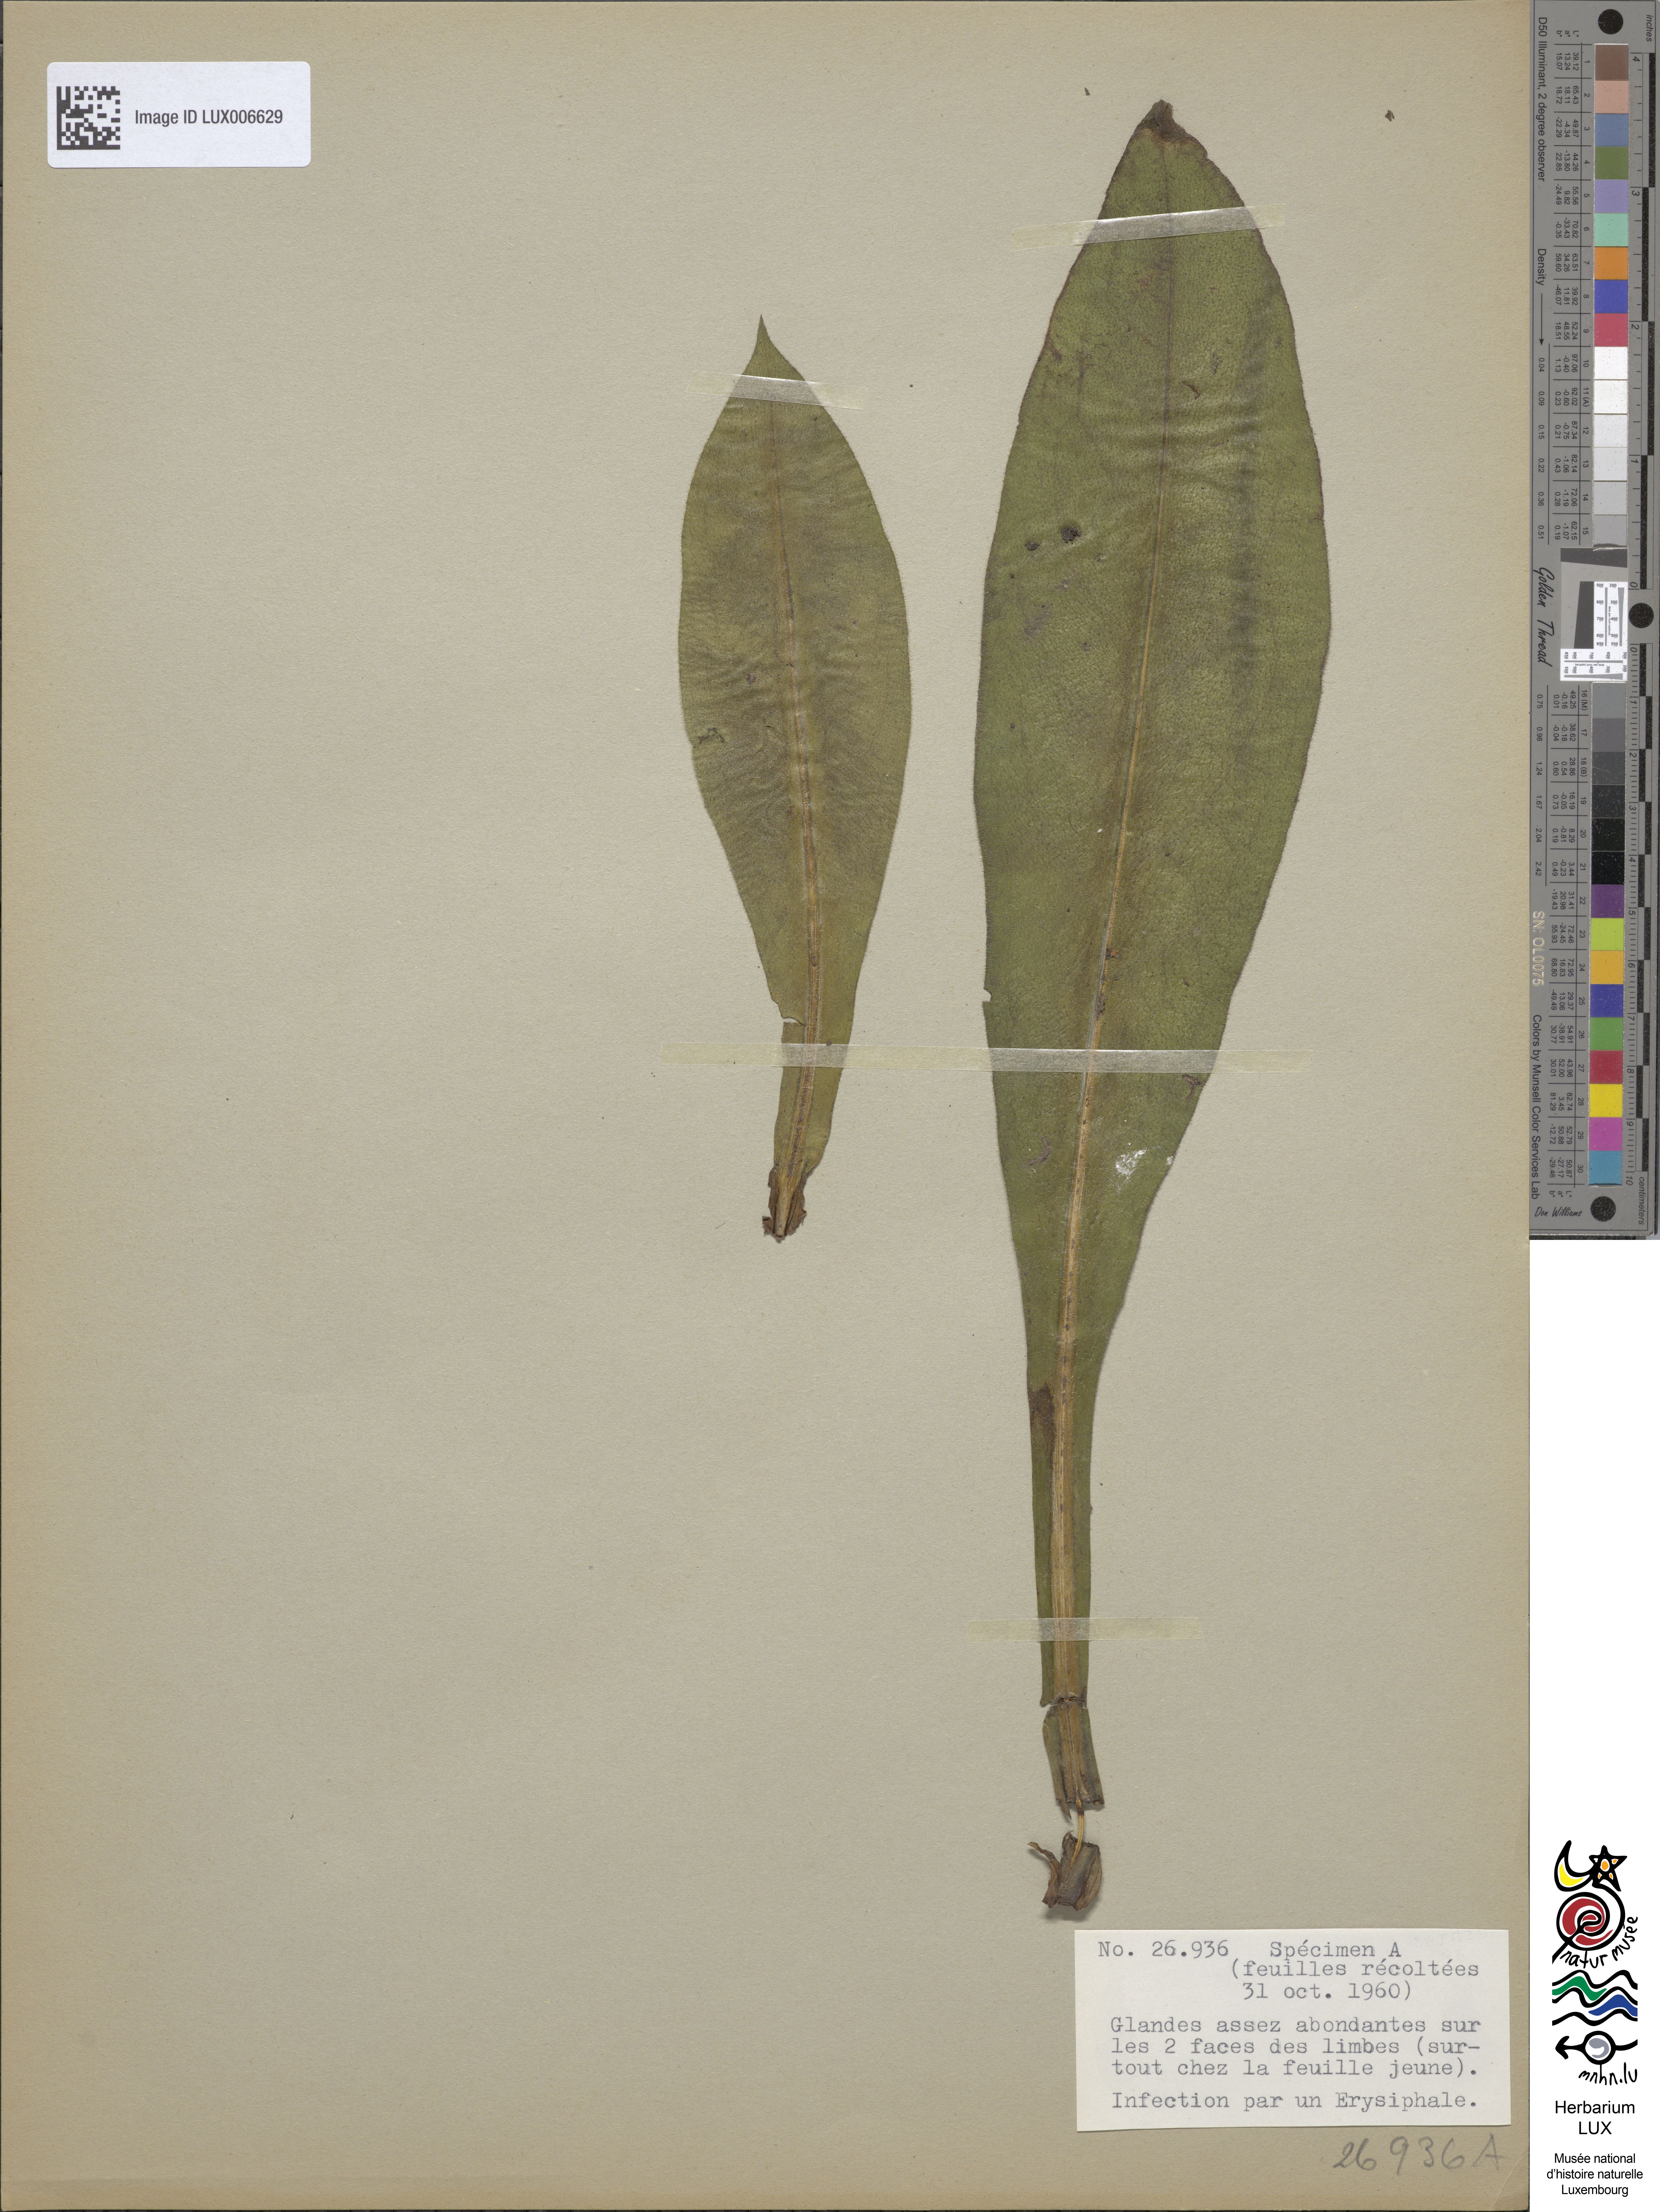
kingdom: Plantae
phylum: Tracheophyta
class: Magnoliopsida
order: Boraginales
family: Boraginaceae
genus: Pulmonaria
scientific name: Pulmonaria montana
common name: Mountain lungwort
